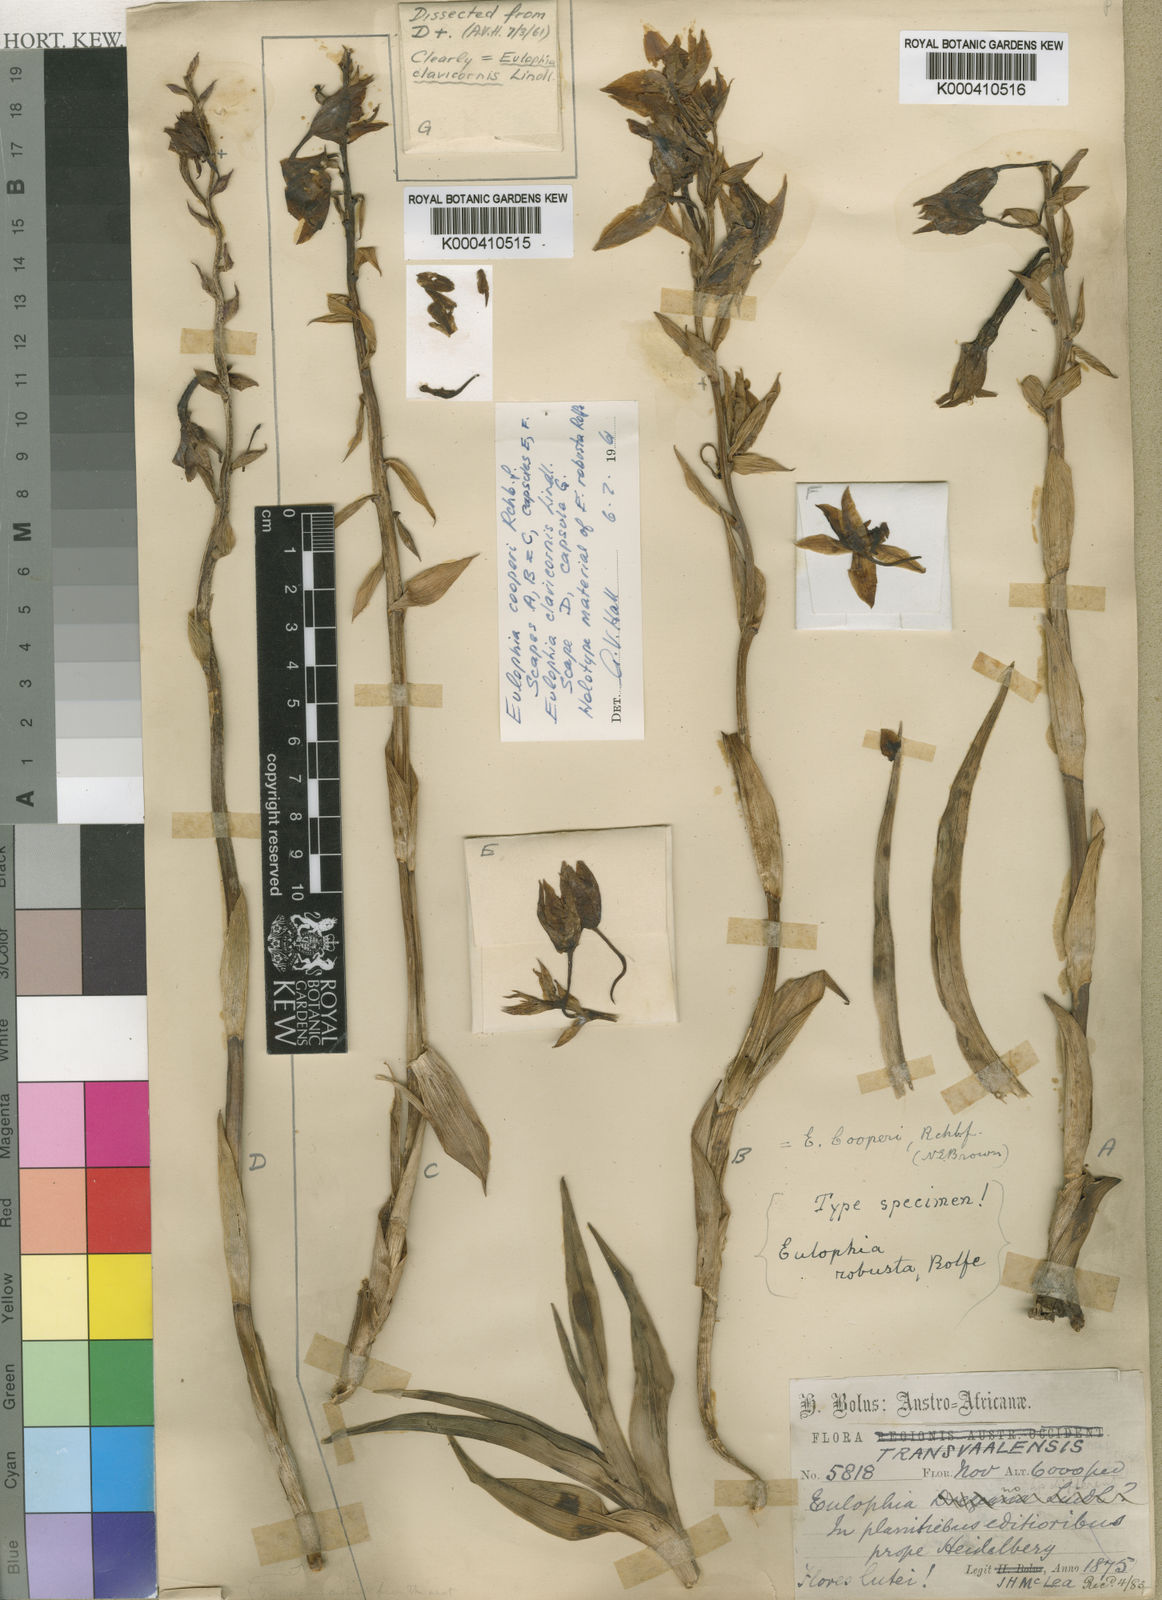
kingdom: Plantae
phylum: Tracheophyta
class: Liliopsida
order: Asparagales
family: Orchidaceae
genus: Eulophia
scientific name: Eulophia cooperi
